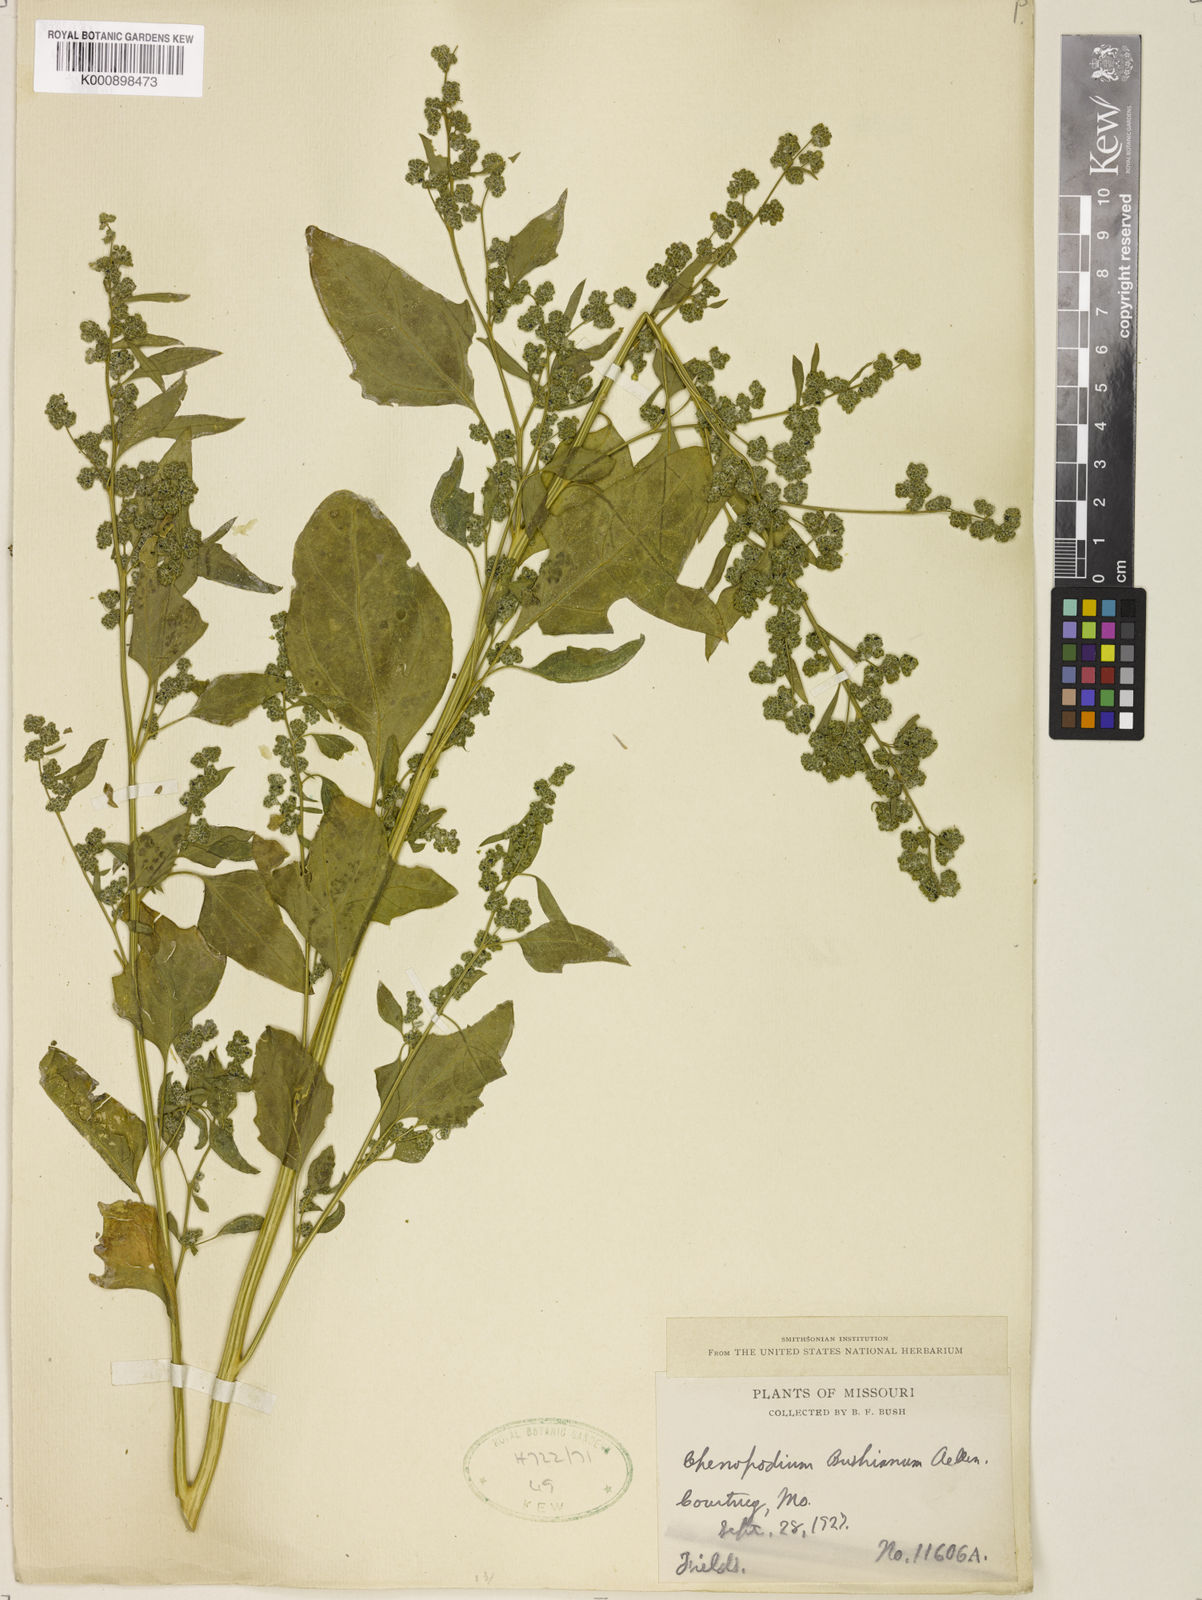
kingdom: Plantae
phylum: Tracheophyta
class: Magnoliopsida
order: Caryophyllales
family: Amaranthaceae
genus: Chenopodium
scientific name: Chenopodium berlandieri
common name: Pit-seed goosefoot
